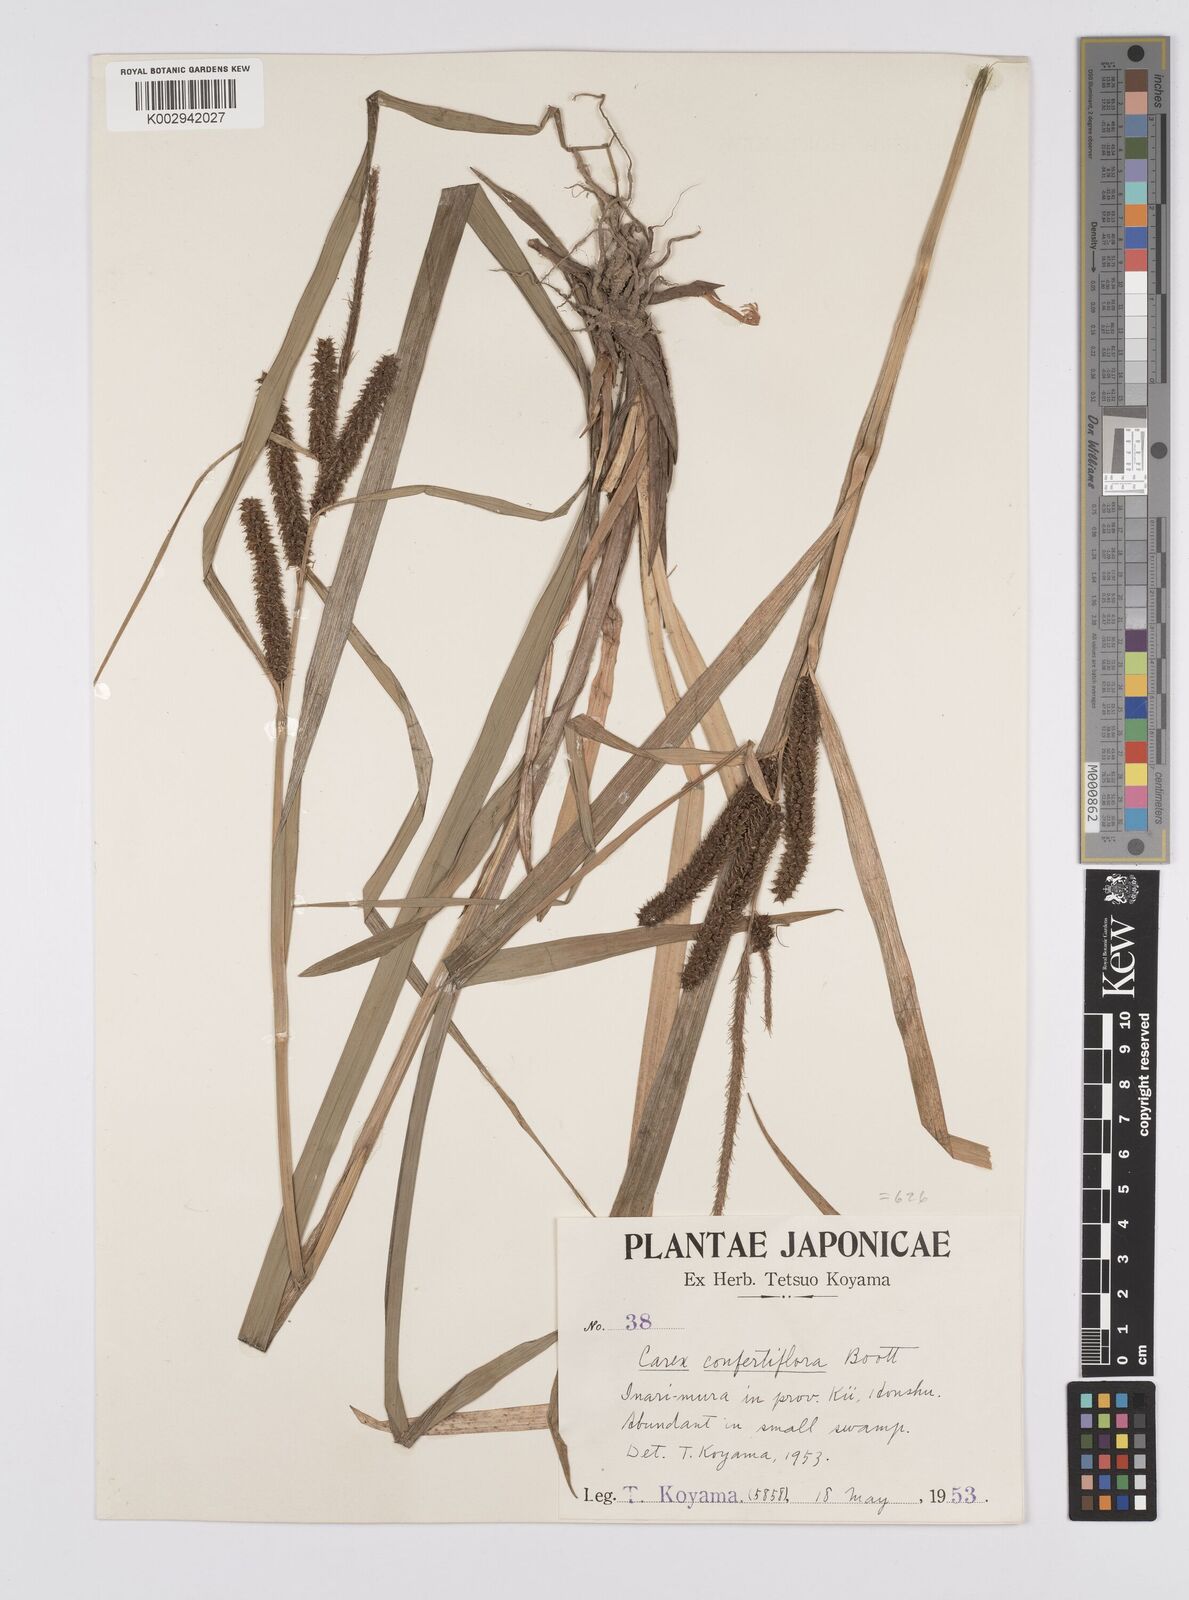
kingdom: Plantae
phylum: Tracheophyta
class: Liliopsida
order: Poales
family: Cyperaceae
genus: Carex
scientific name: Carex olivacea
